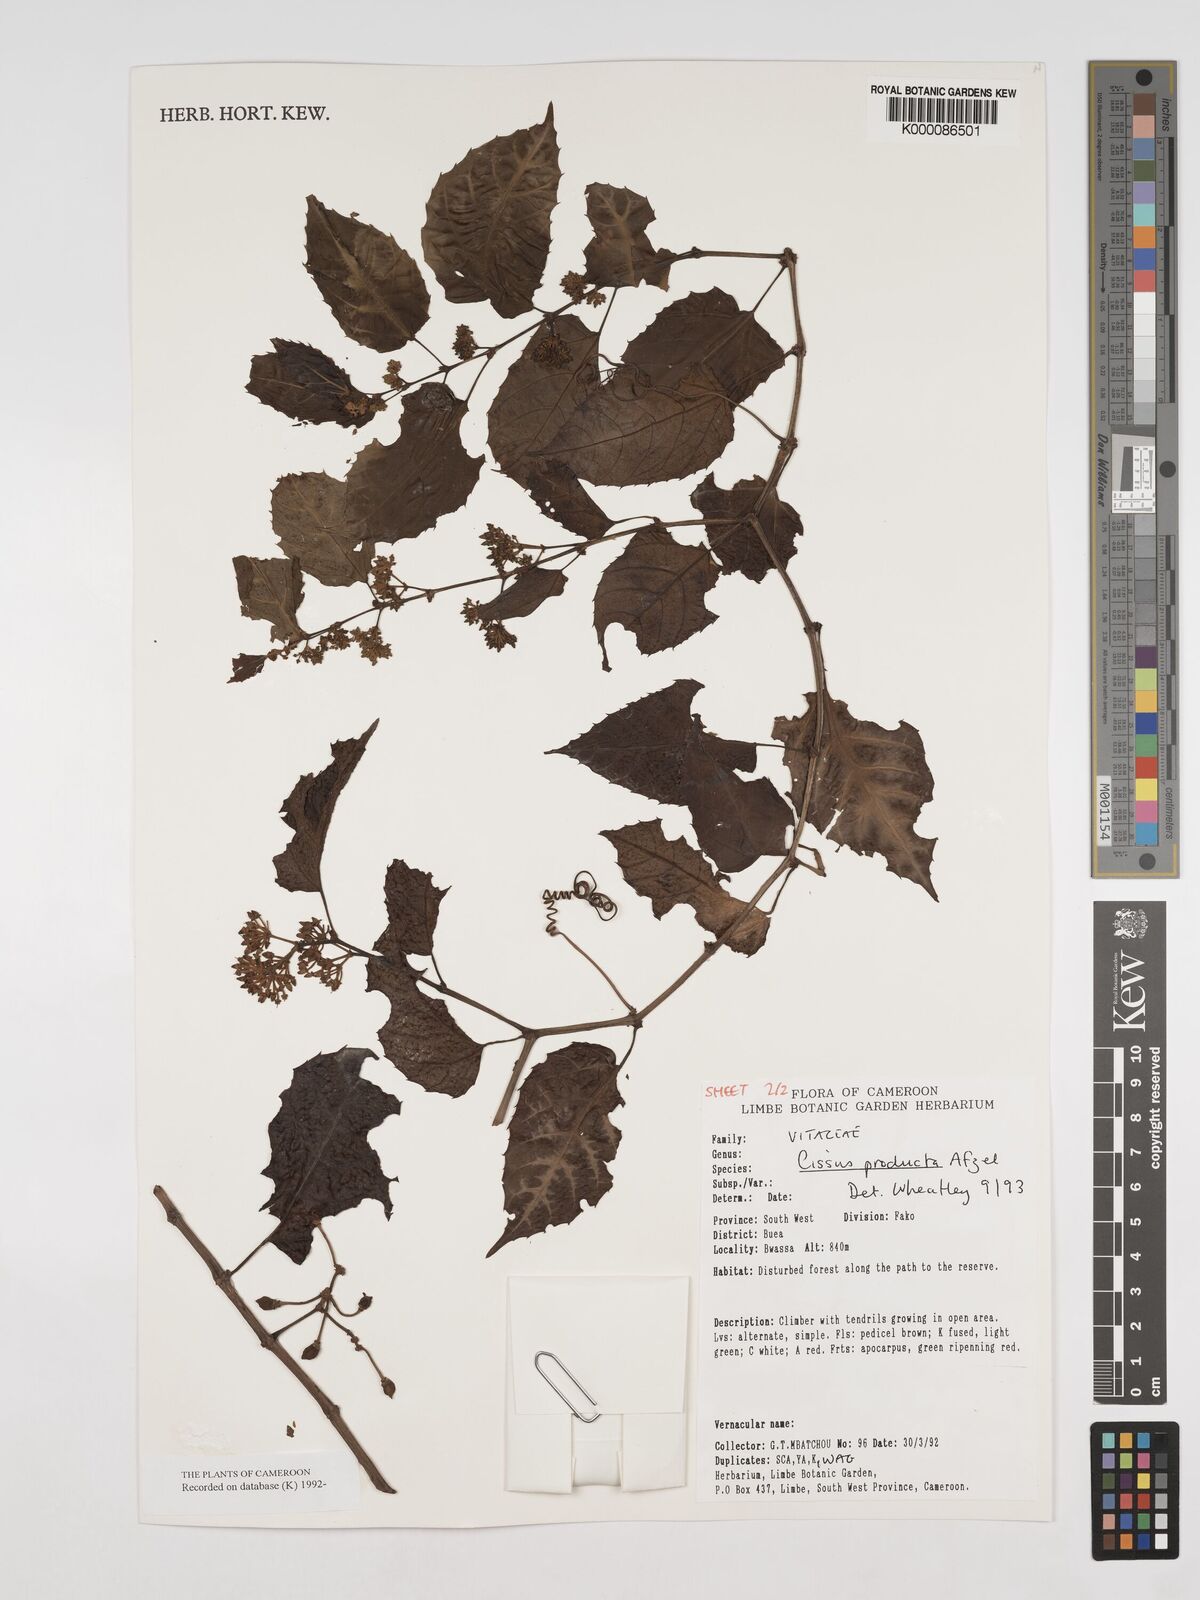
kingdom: Plantae
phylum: Tracheophyta
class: Magnoliopsida
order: Vitales
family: Vitaceae
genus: Cissus
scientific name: Cissus producta
